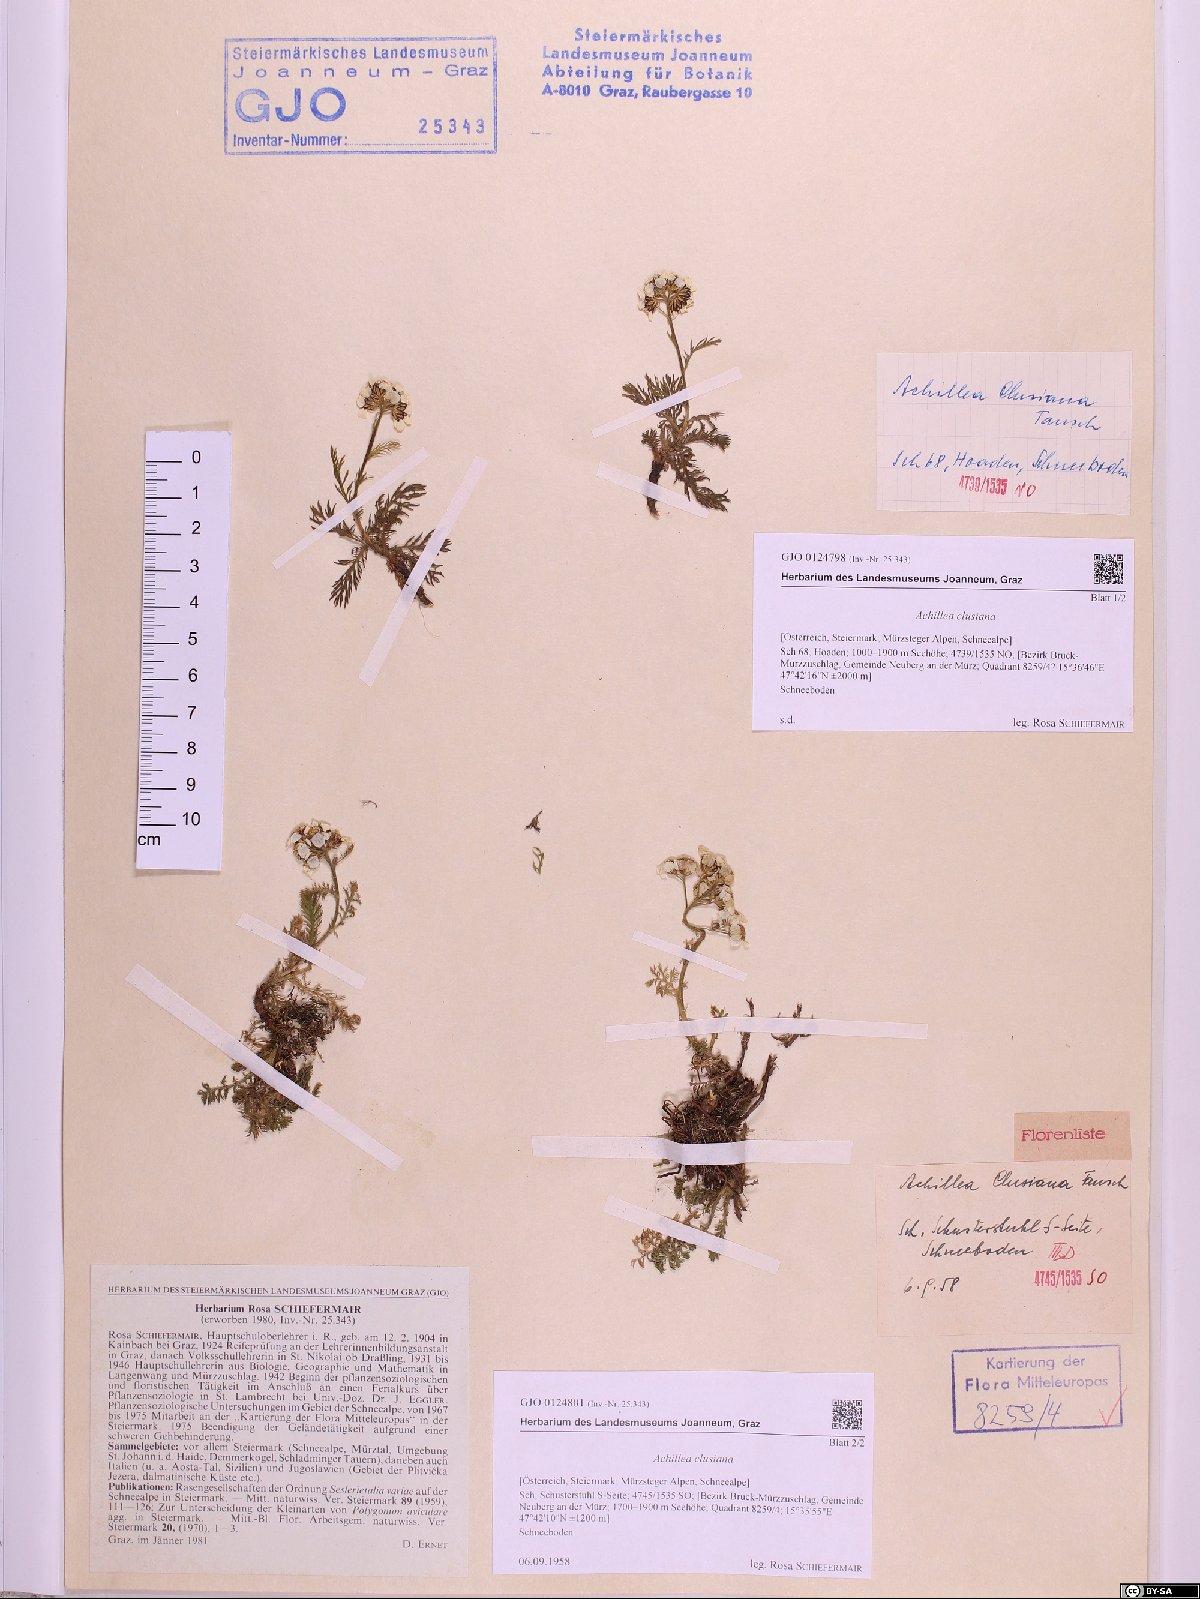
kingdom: Plantae
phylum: Tracheophyta
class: Magnoliopsida
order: Asterales
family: Asteraceae
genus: Achillea
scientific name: Achillea clusiana
